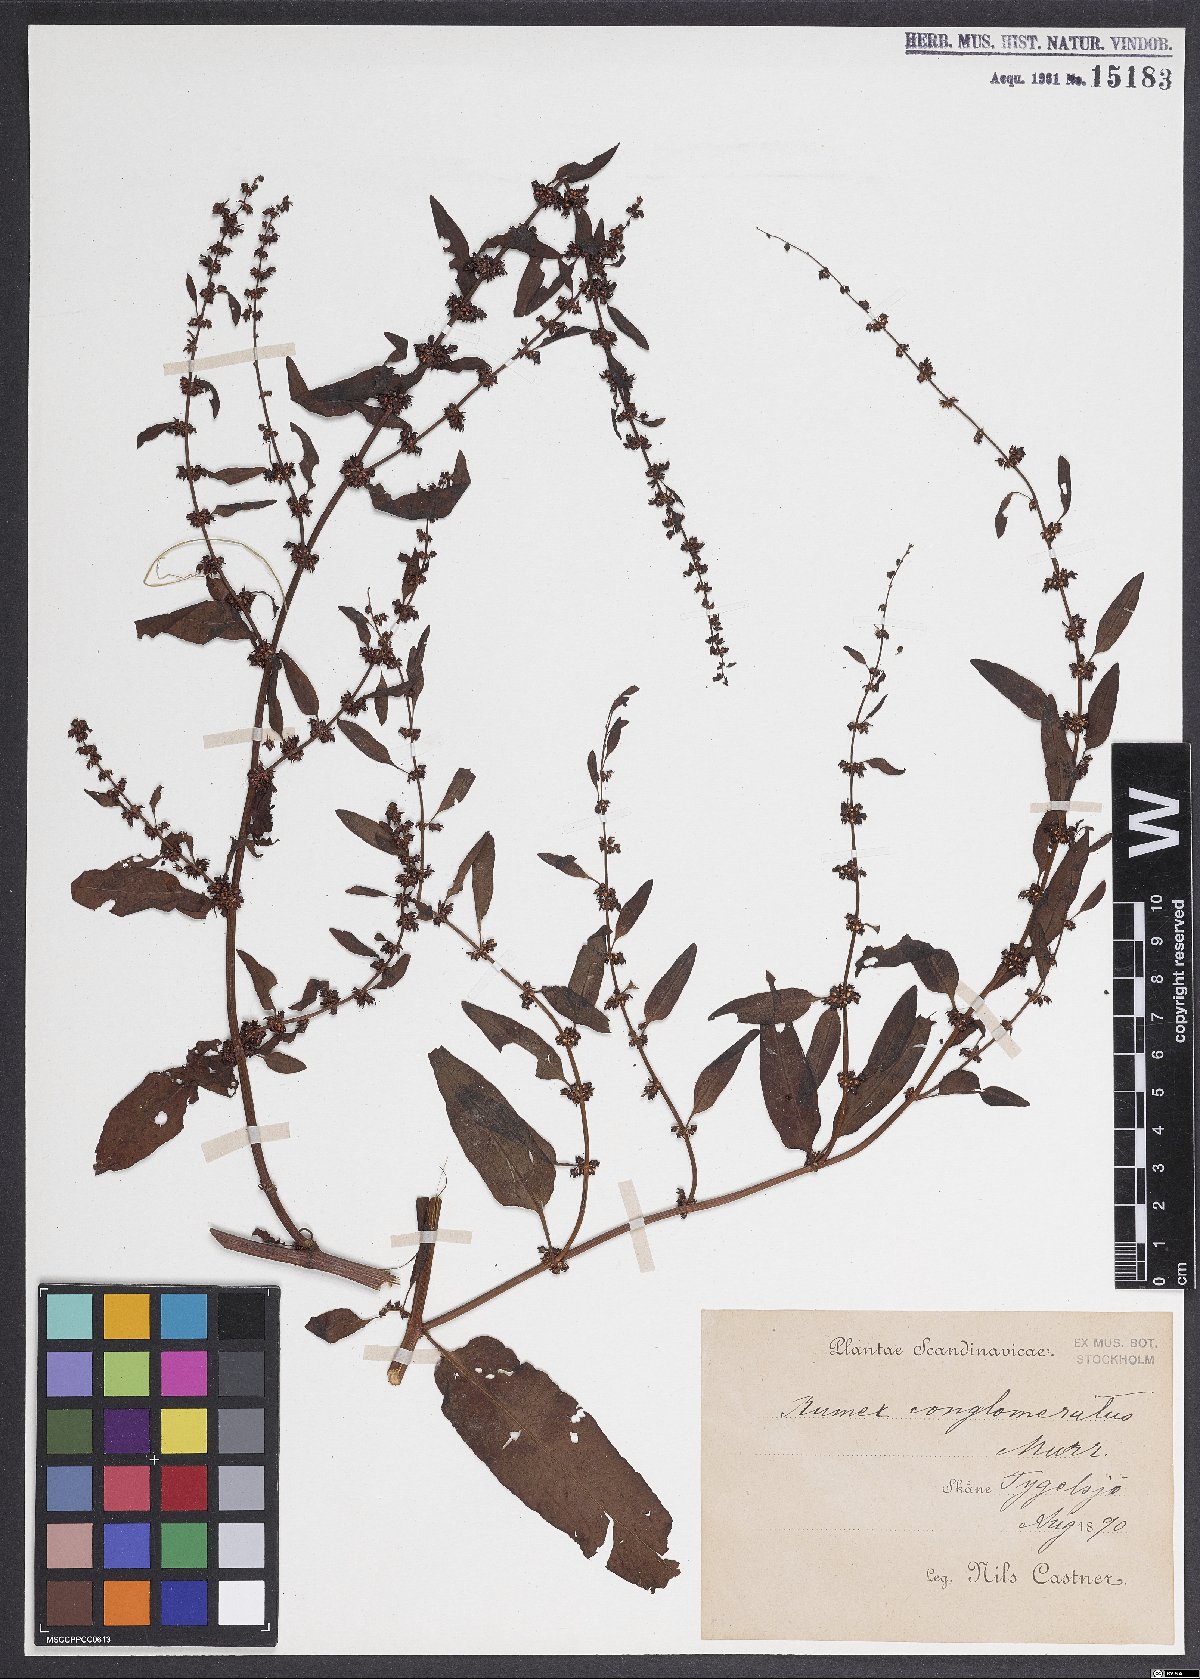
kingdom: Plantae
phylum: Tracheophyta
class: Magnoliopsida
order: Caryophyllales
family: Polygonaceae
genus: Rumex
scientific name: Rumex conglomeratus
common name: Clustered dock
